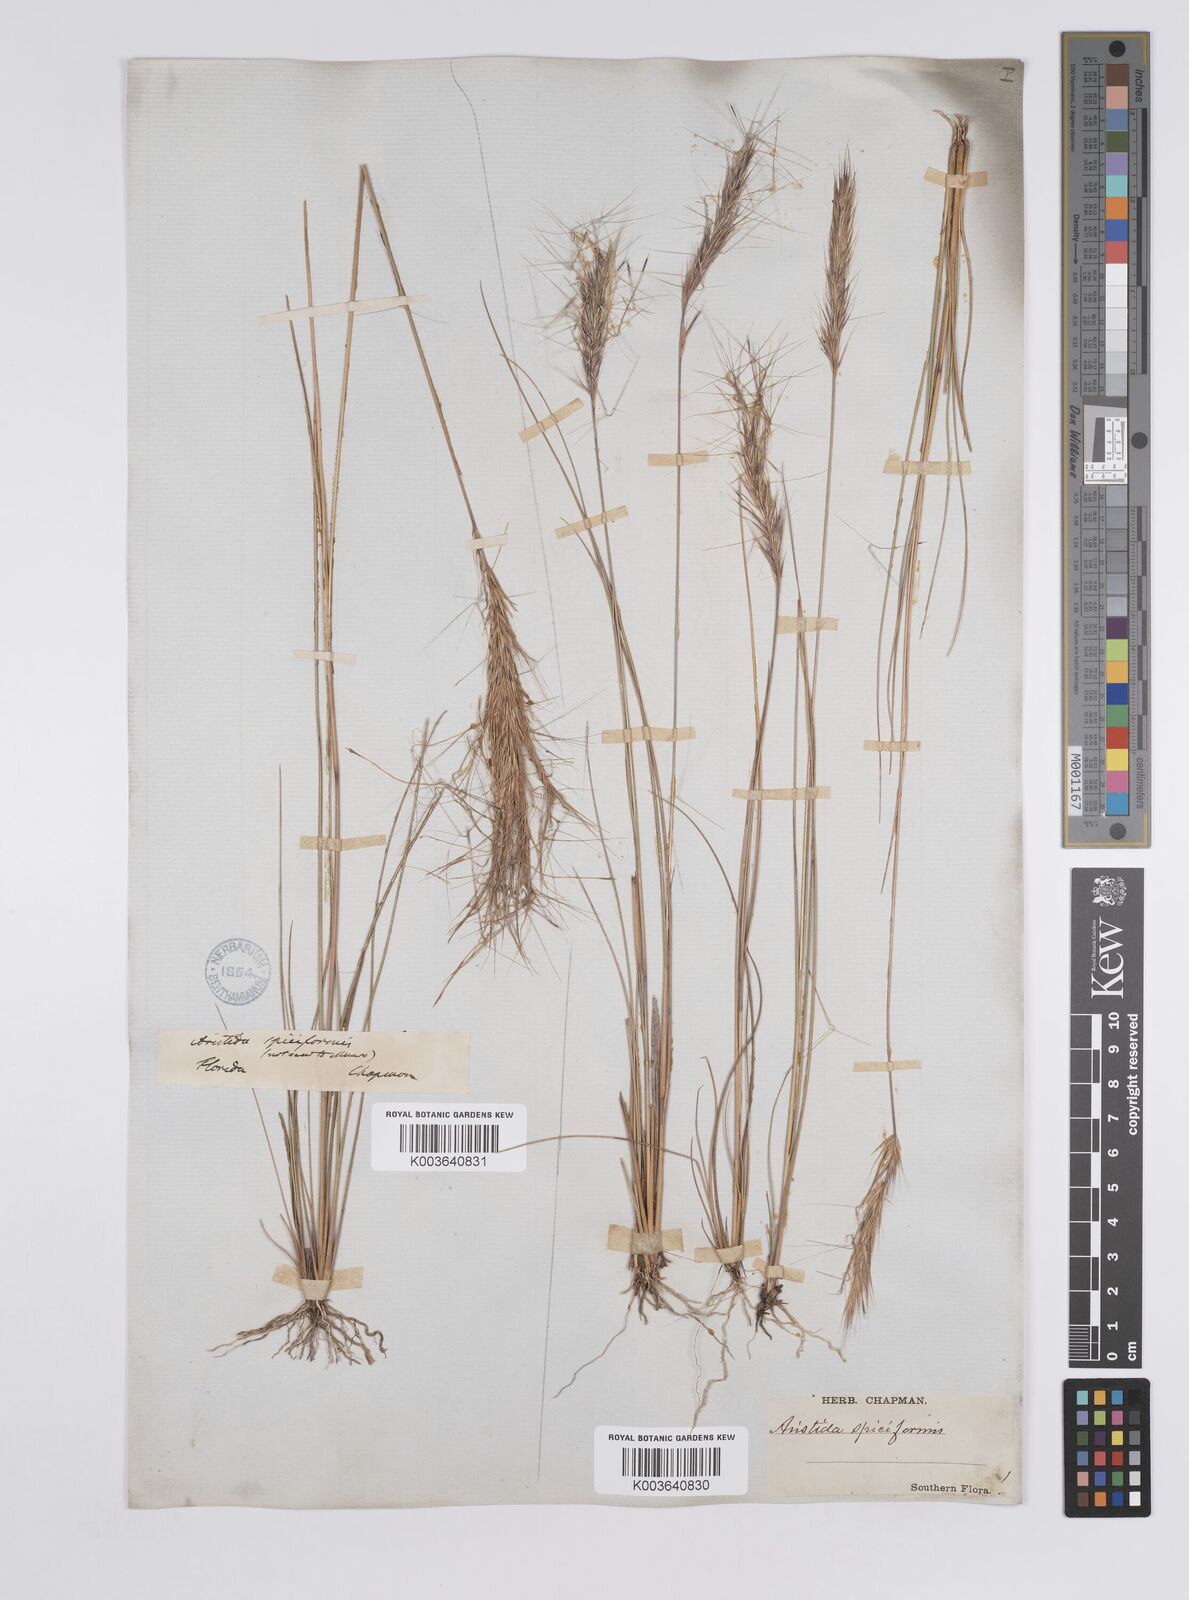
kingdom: Plantae
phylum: Tracheophyta
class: Liliopsida
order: Poales
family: Poaceae
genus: Aristida
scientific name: Aristida spiciformis
